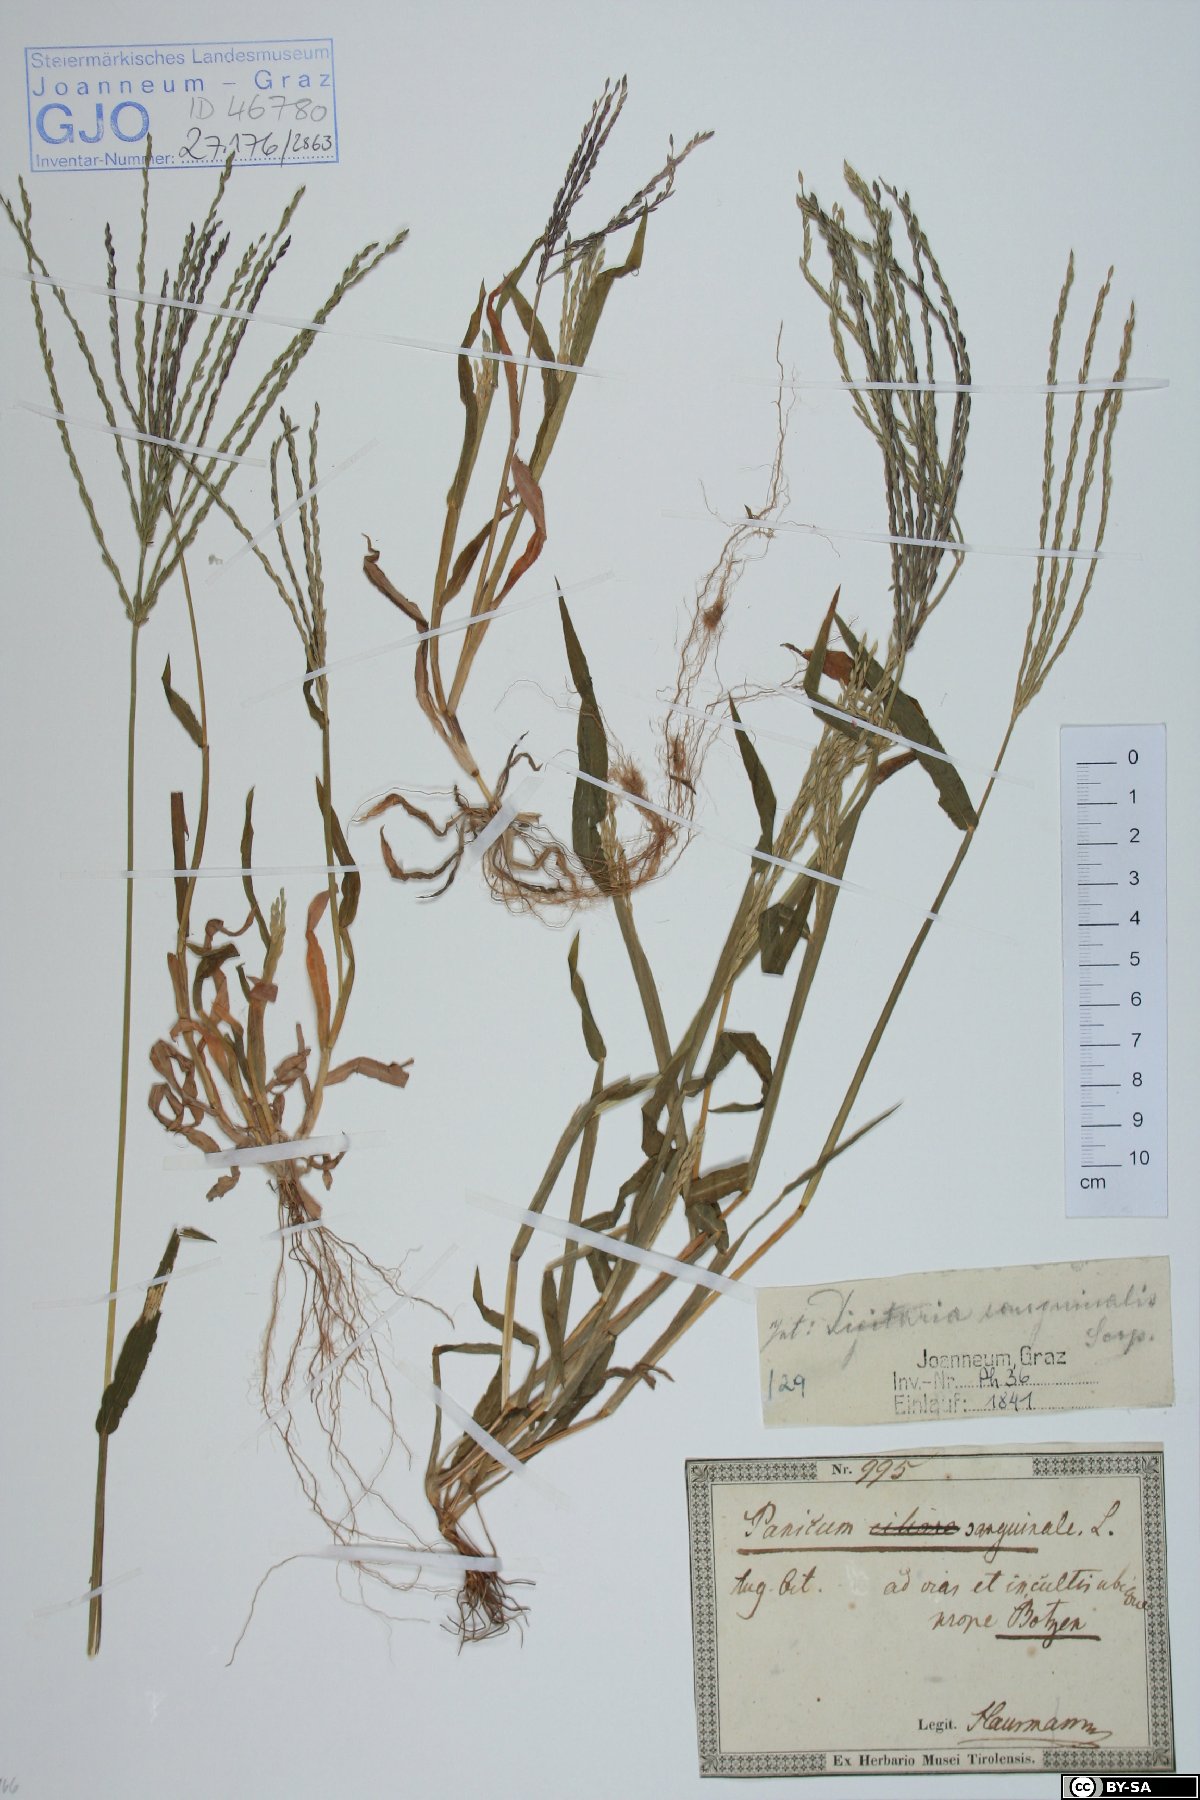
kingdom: Plantae
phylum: Tracheophyta
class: Liliopsida
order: Poales
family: Poaceae
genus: Digitaria
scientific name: Digitaria sanguinalis
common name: Hairy crabgrass
